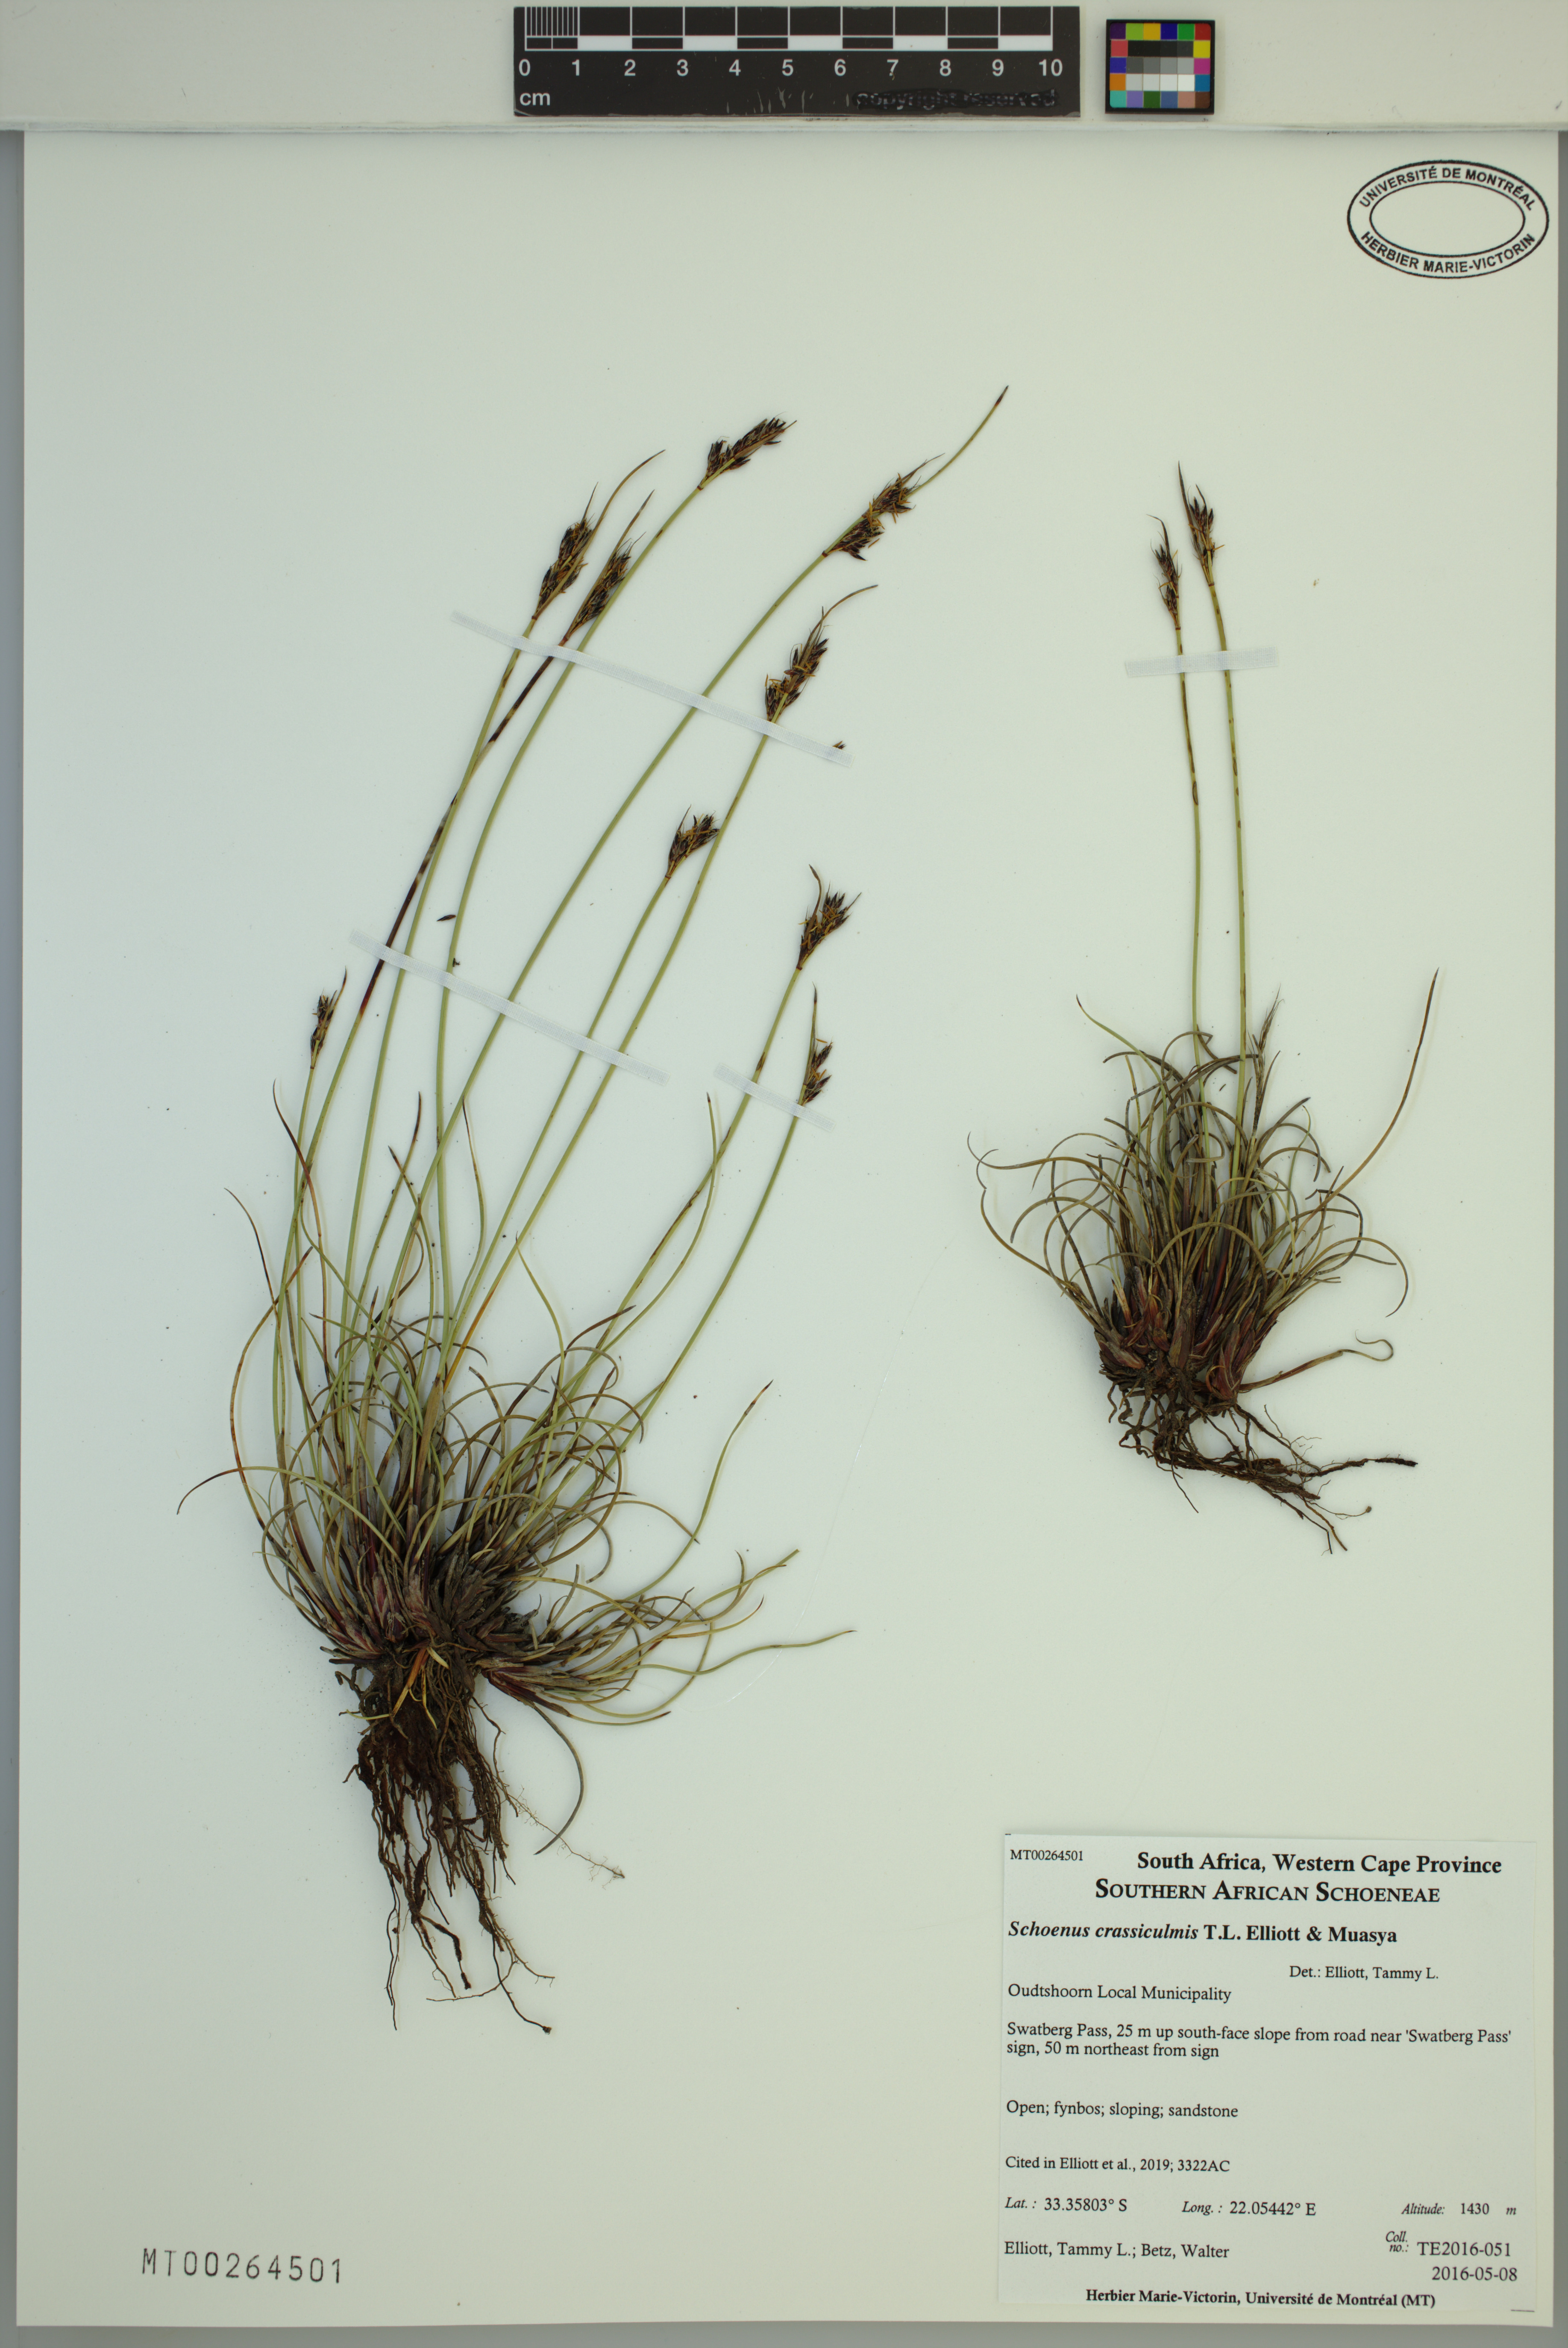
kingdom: Plantae
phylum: Tracheophyta
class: Liliopsida
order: Poales
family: Cyperaceae
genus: Schoenus
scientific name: Schoenus crassiculmis
